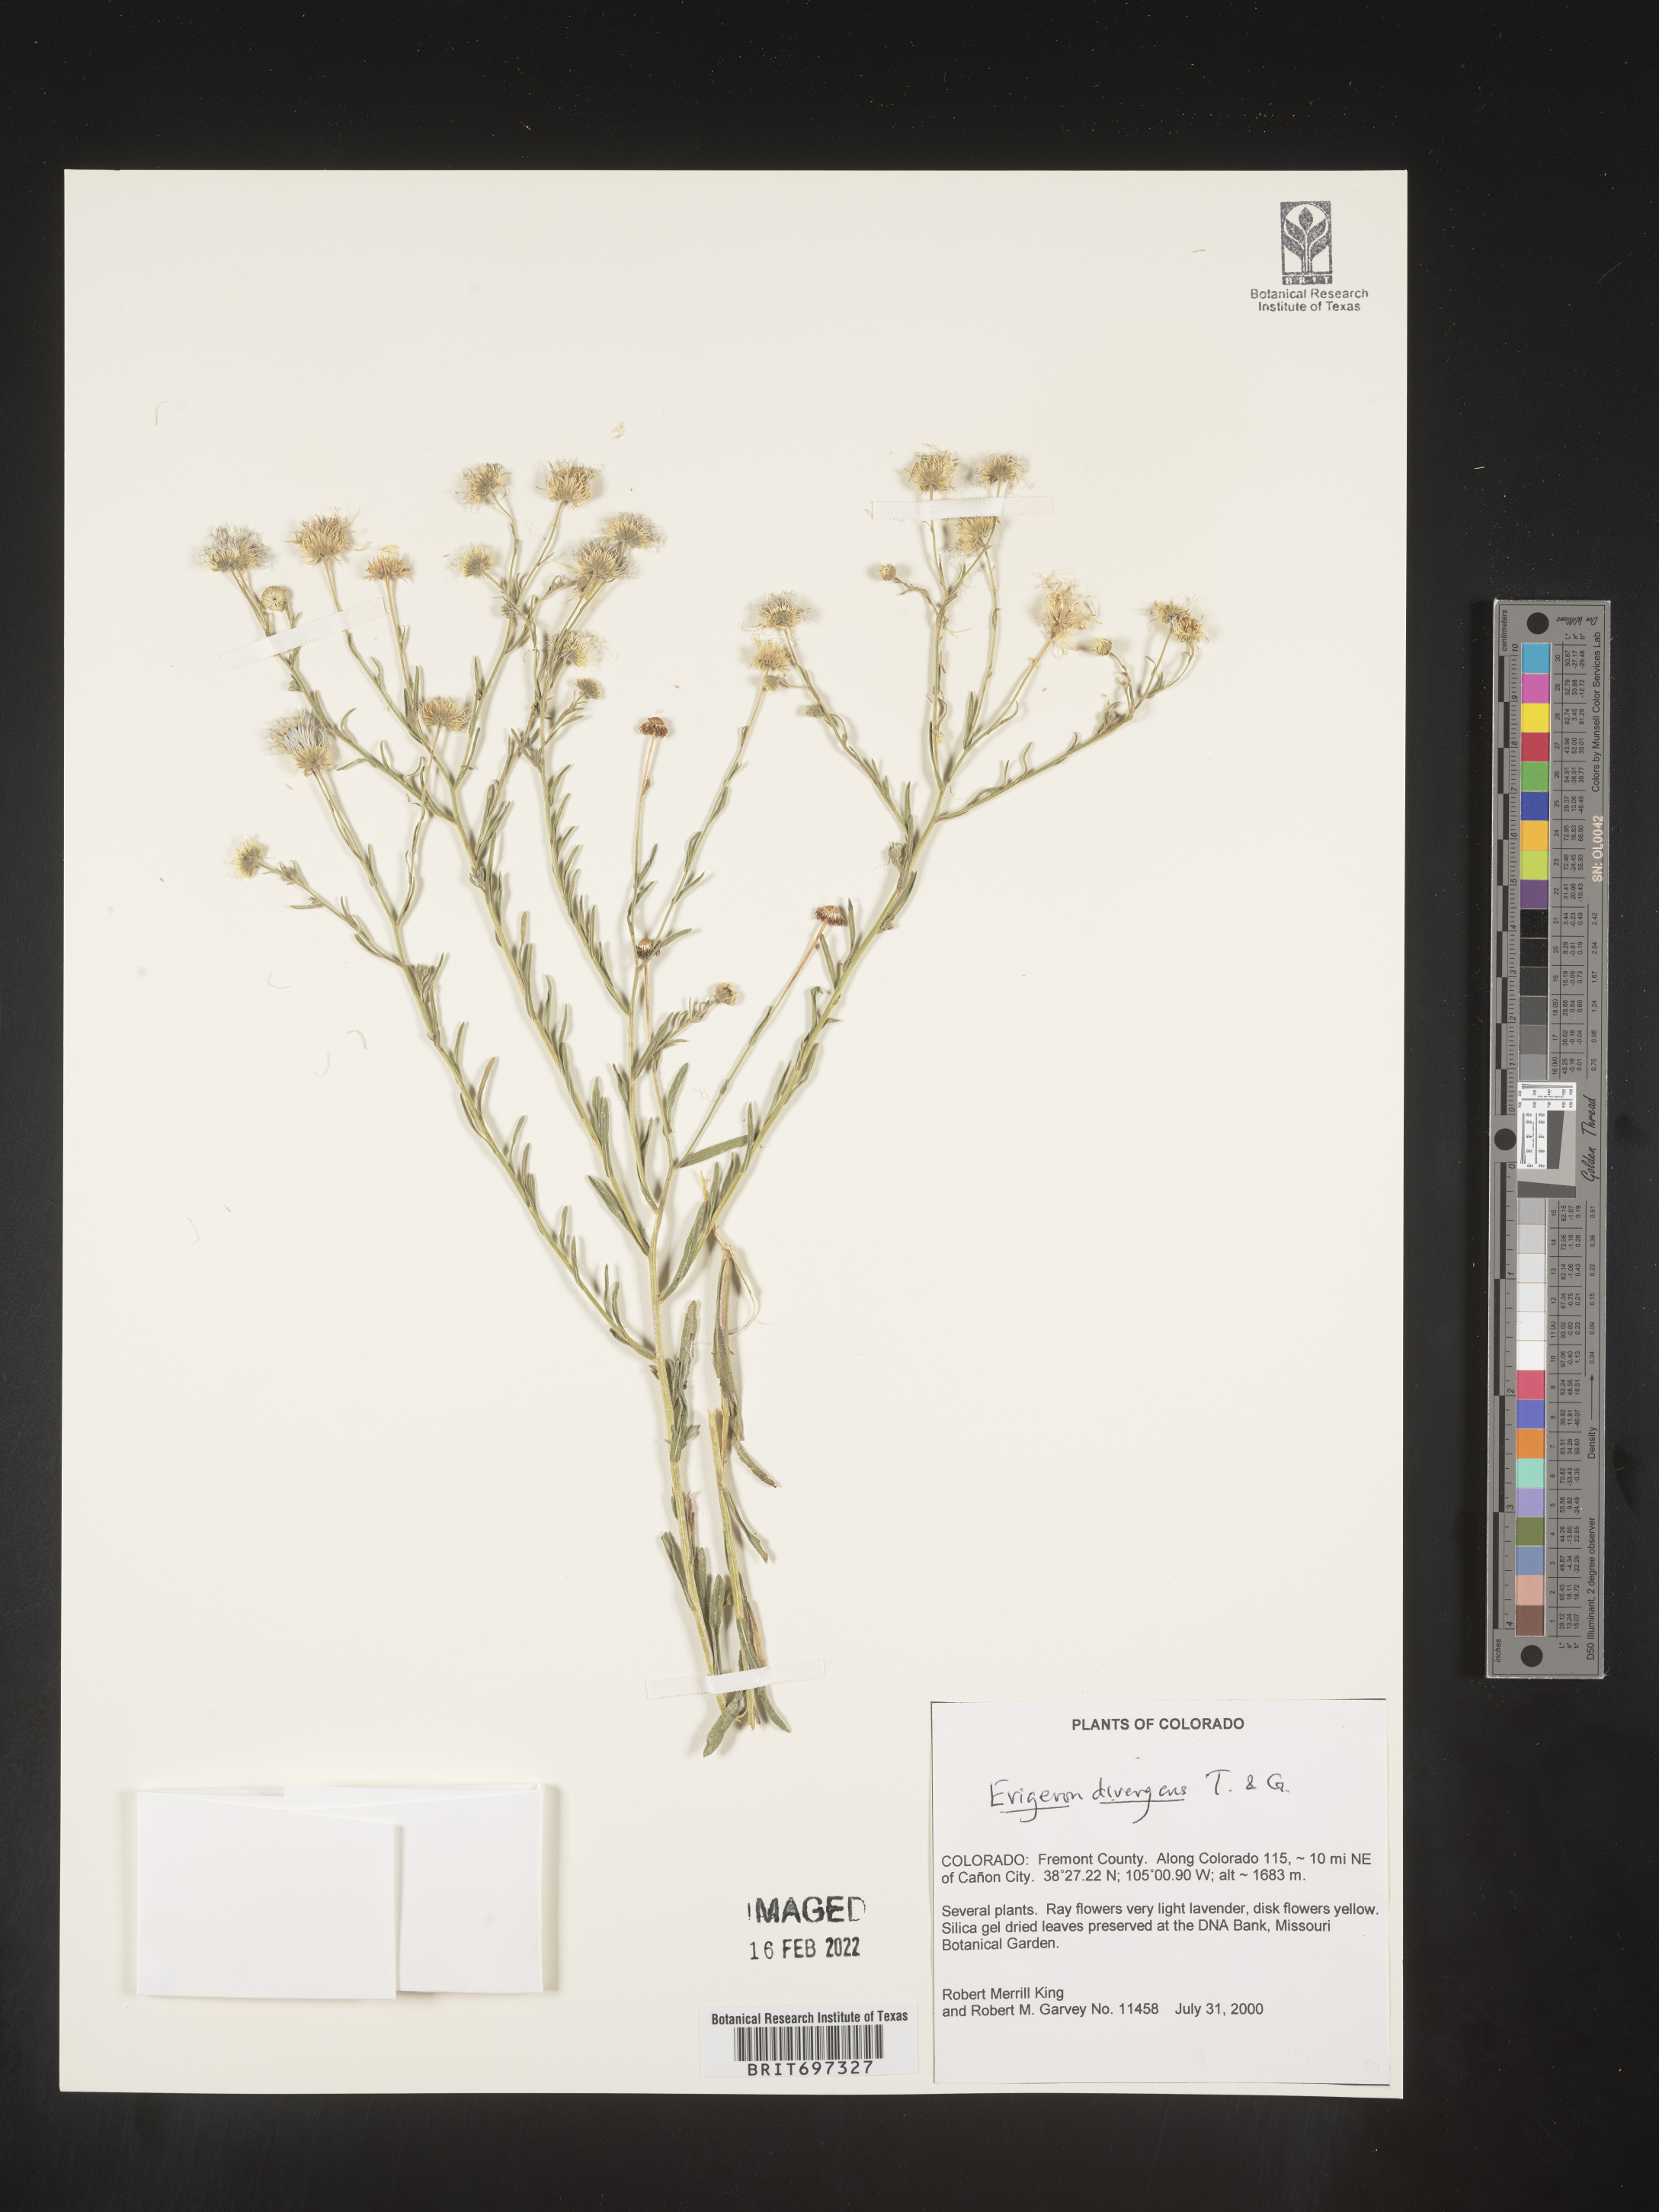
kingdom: Plantae
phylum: Tracheophyta
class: Magnoliopsida
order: Asterales
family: Asteraceae
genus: Erigeron
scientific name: Erigeron divergens
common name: Diffuse fleabane
